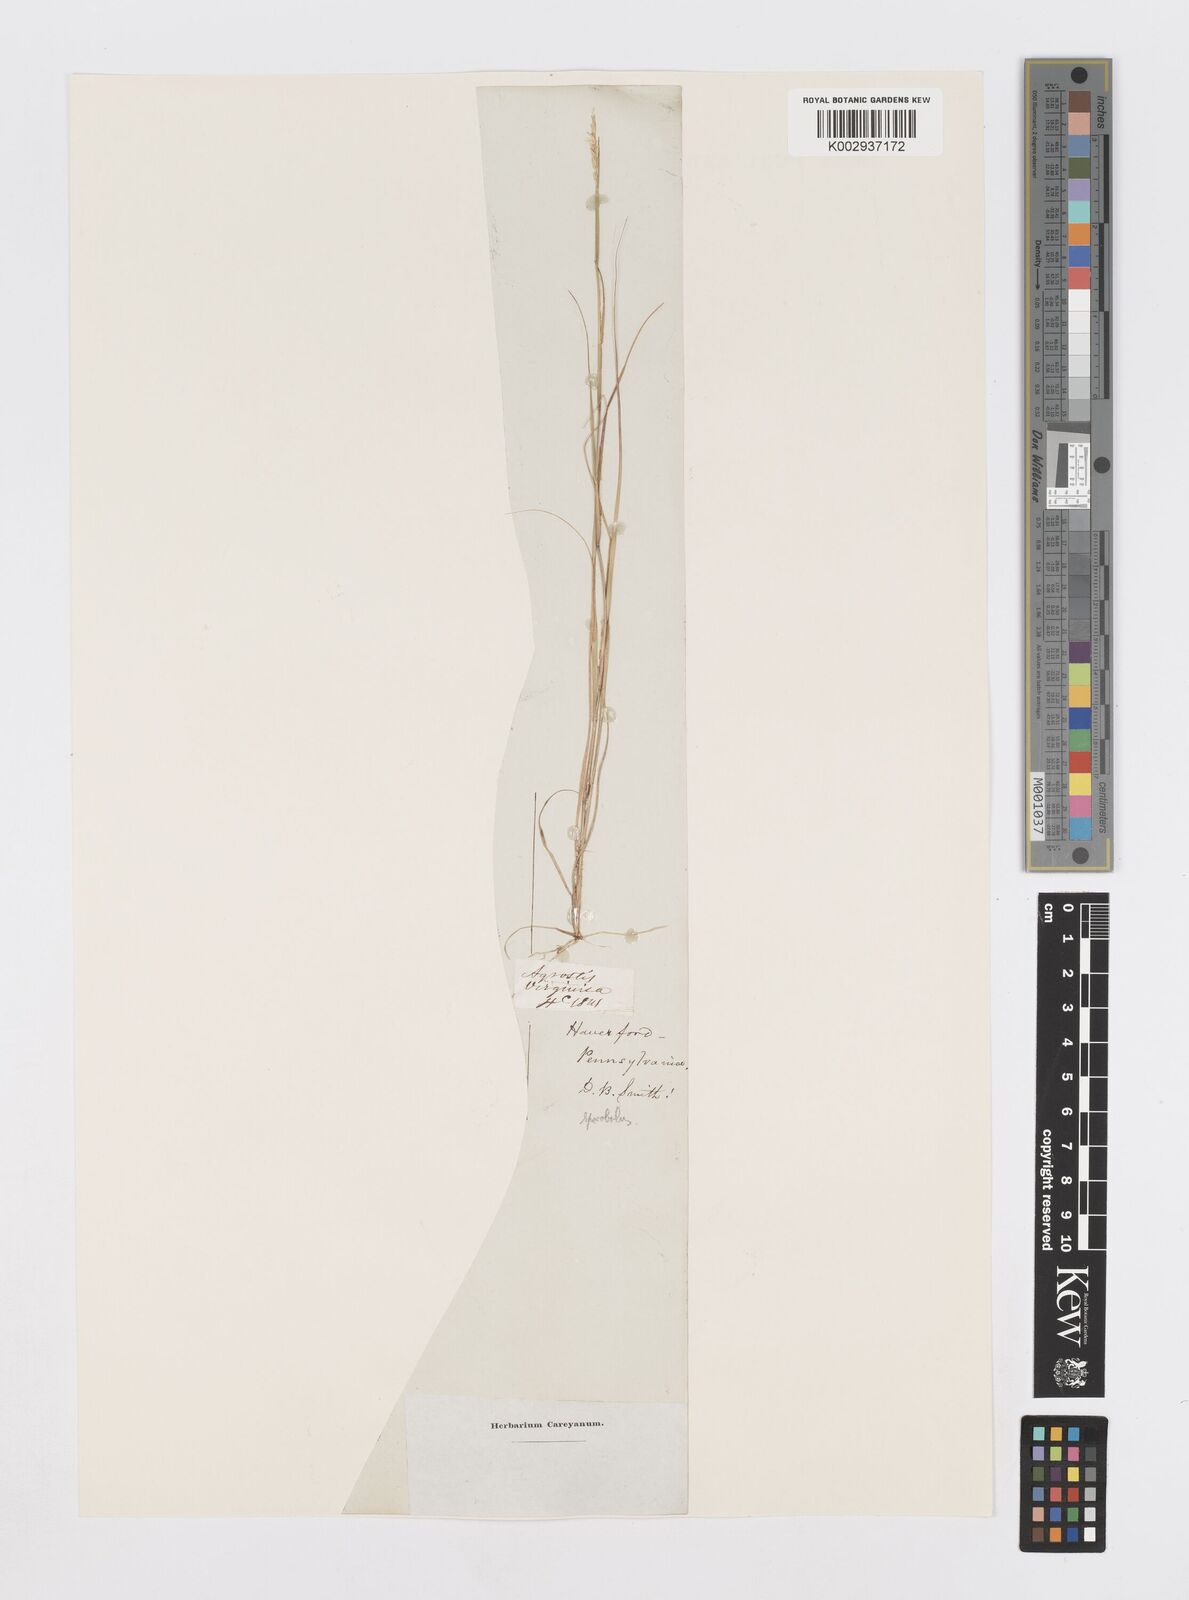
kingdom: Plantae
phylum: Tracheophyta
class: Liliopsida
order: Poales
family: Poaceae
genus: Sporobolus
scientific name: Sporobolus virginicus
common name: Beach dropseed
